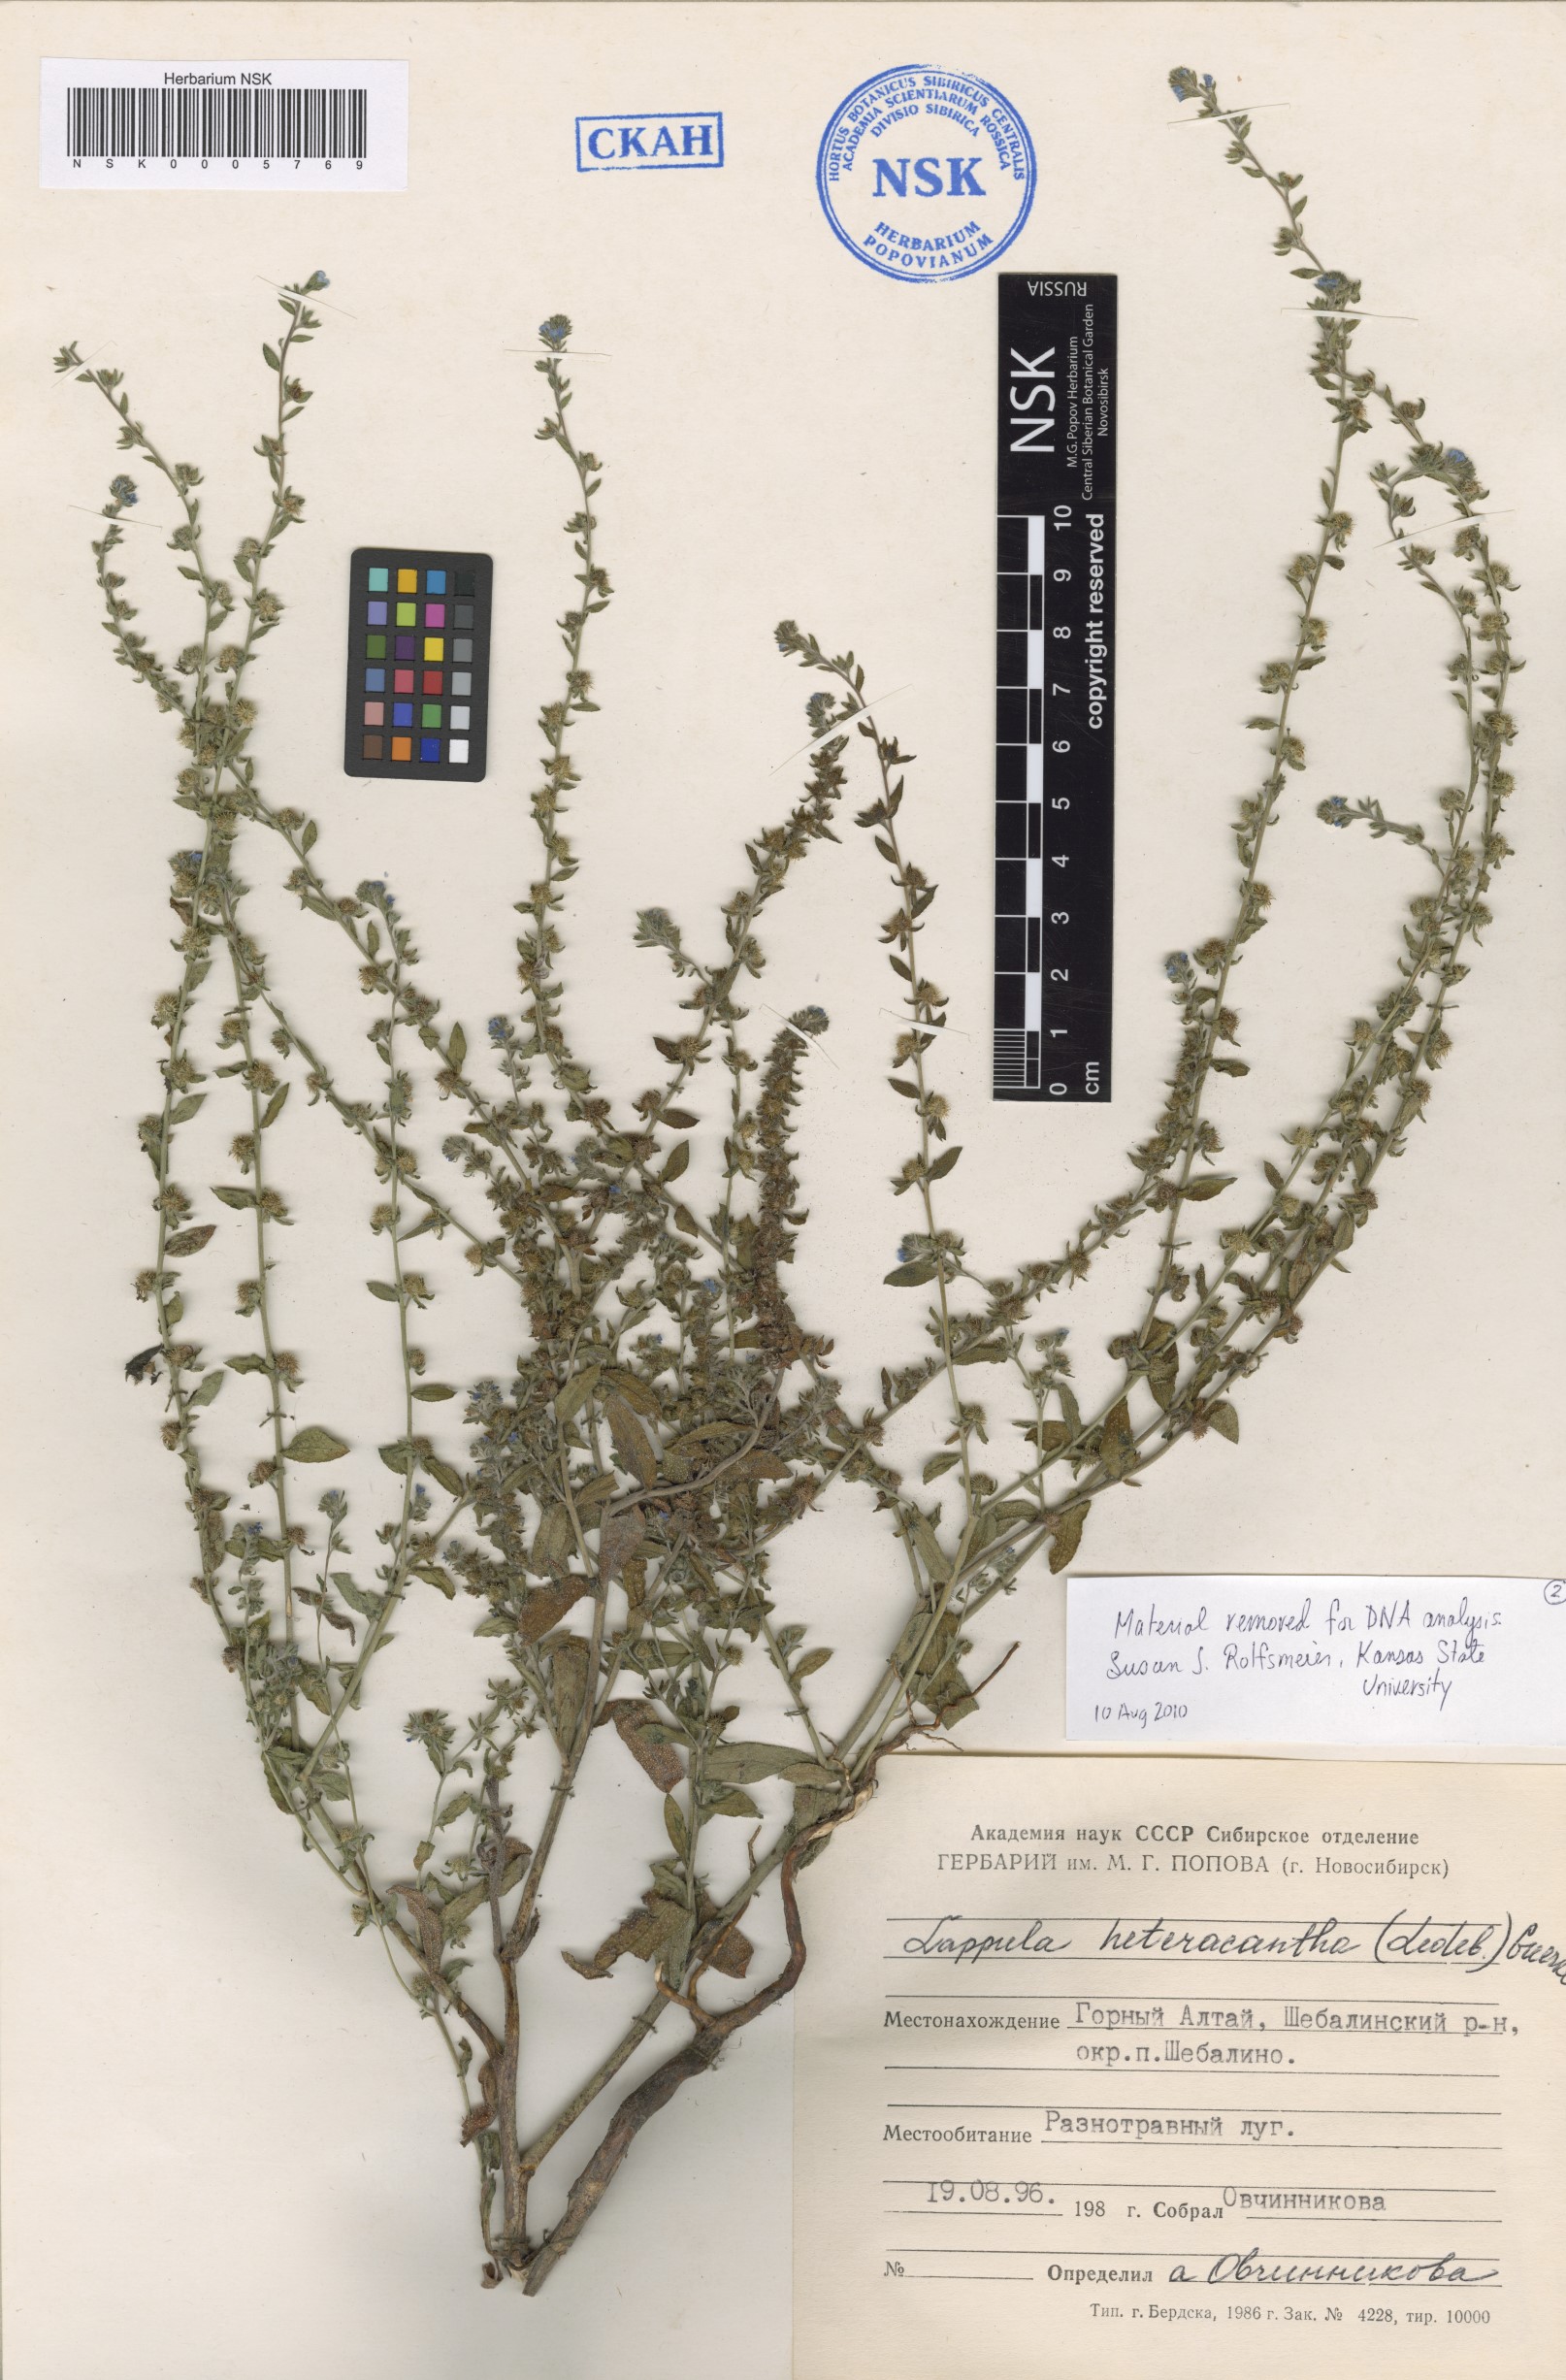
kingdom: Plantae
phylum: Tracheophyta
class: Magnoliopsida
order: Boraginales
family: Boraginaceae
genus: Lappula
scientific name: Lappula heteracantha
